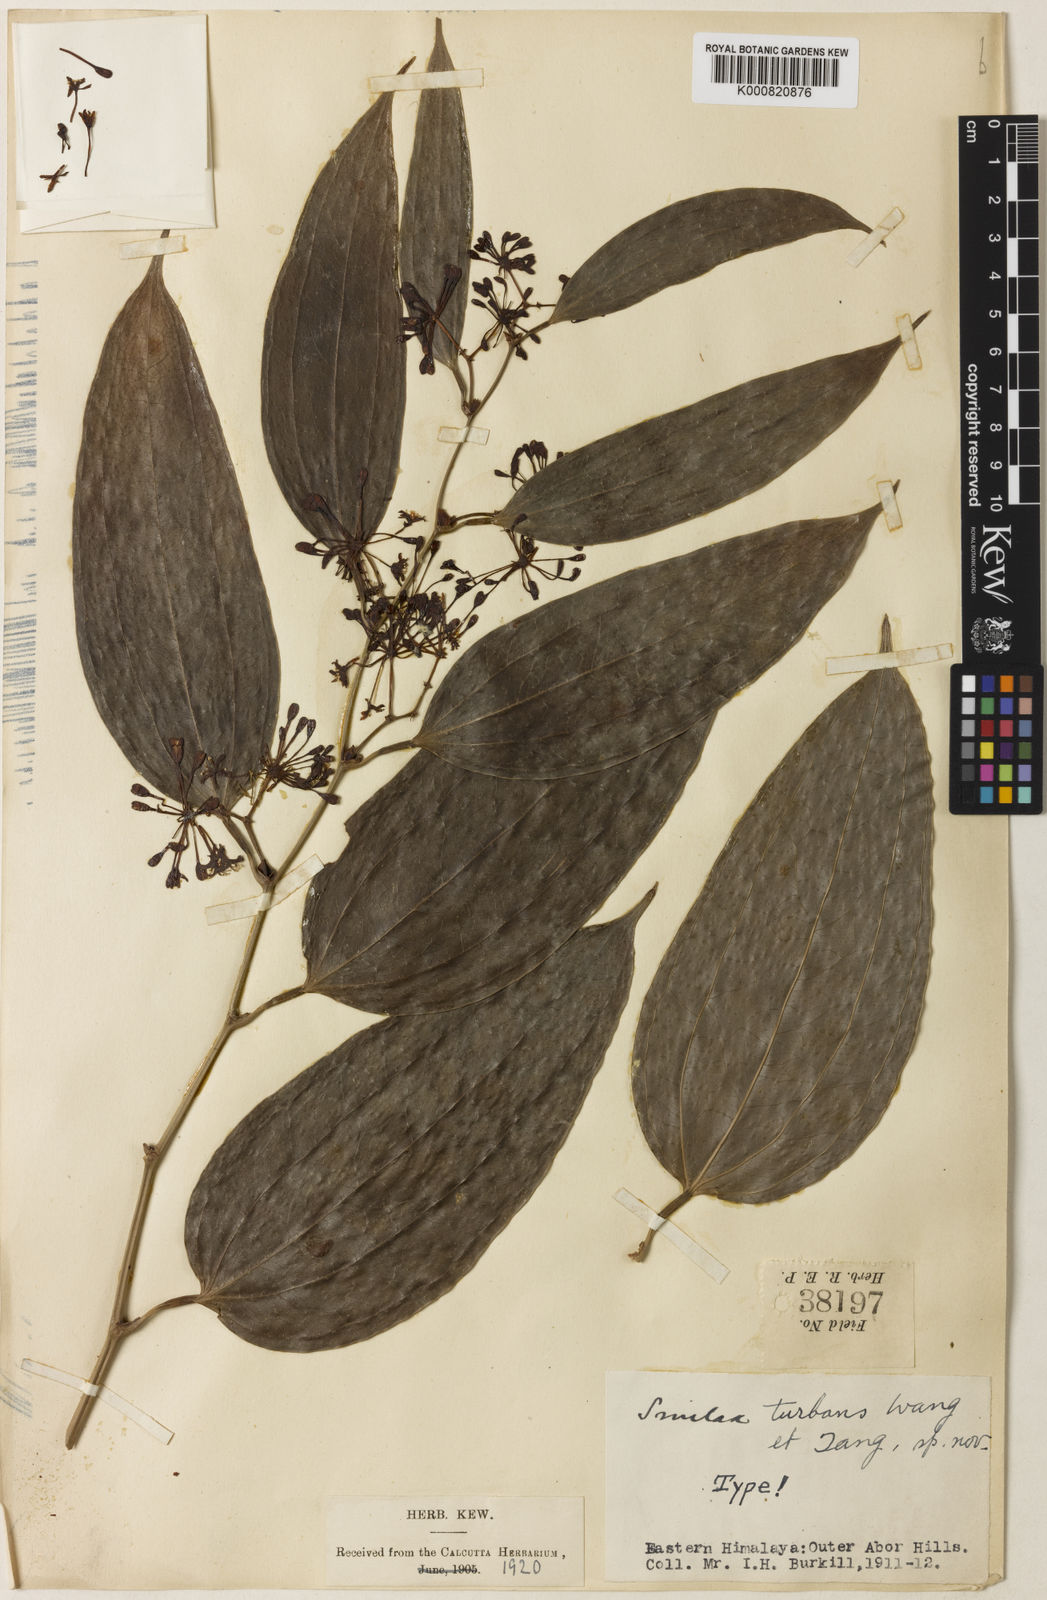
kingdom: Plantae
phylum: Tracheophyta
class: Liliopsida
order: Liliales
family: Smilacaceae
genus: Smilax
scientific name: Smilax turbans
